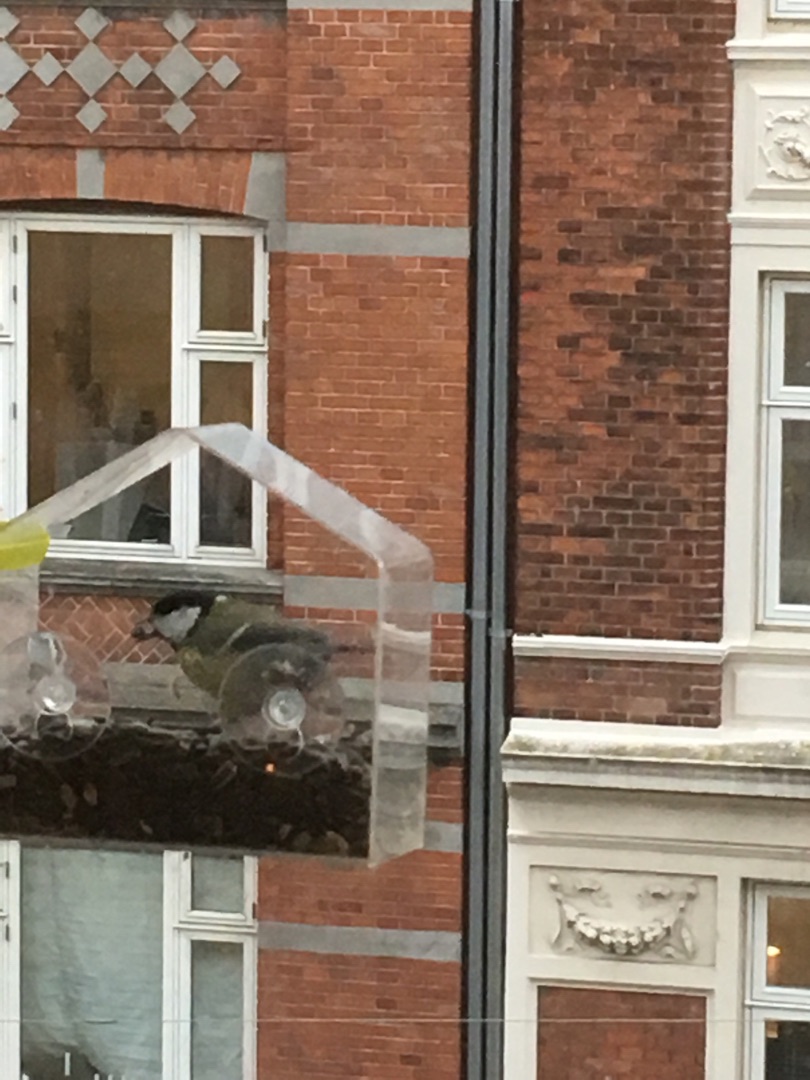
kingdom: Animalia
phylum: Chordata
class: Aves
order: Passeriformes
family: Paridae
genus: Parus
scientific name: Parus major
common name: Musvit
